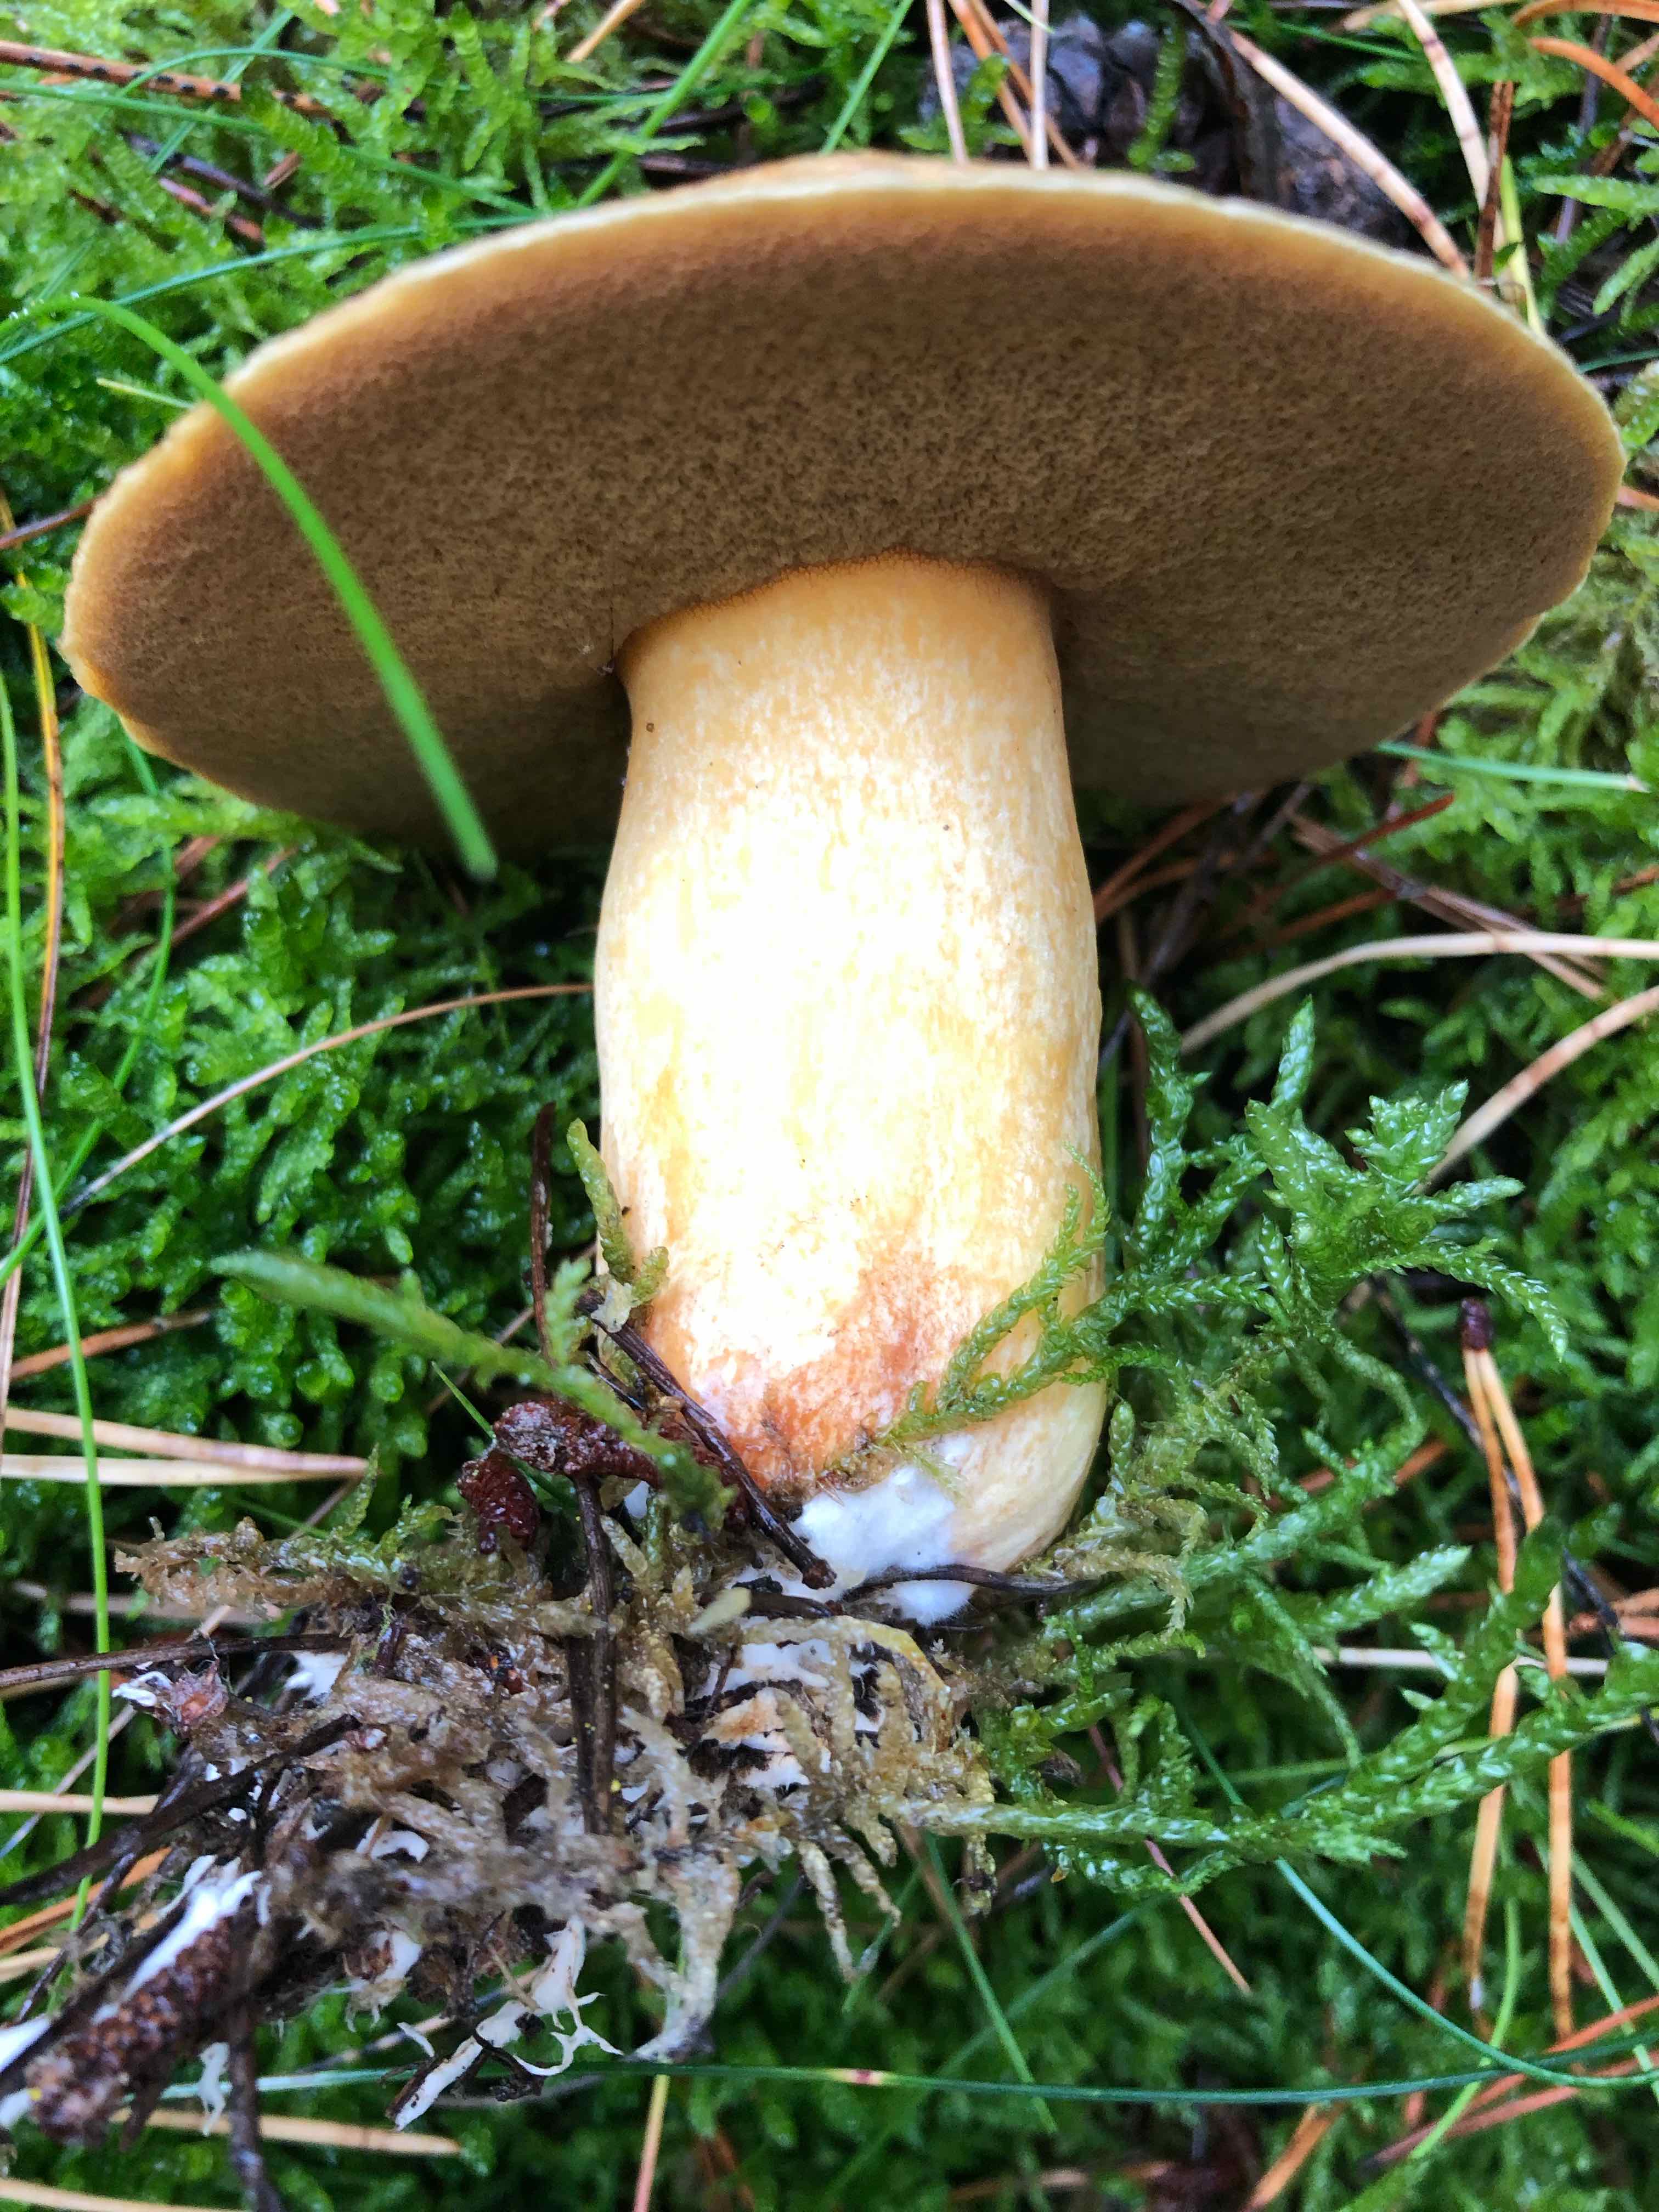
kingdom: Fungi
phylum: Basidiomycota
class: Agaricomycetes
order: Boletales
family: Suillaceae
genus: Suillus
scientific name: Suillus variegatus
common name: broget slimrørhat
